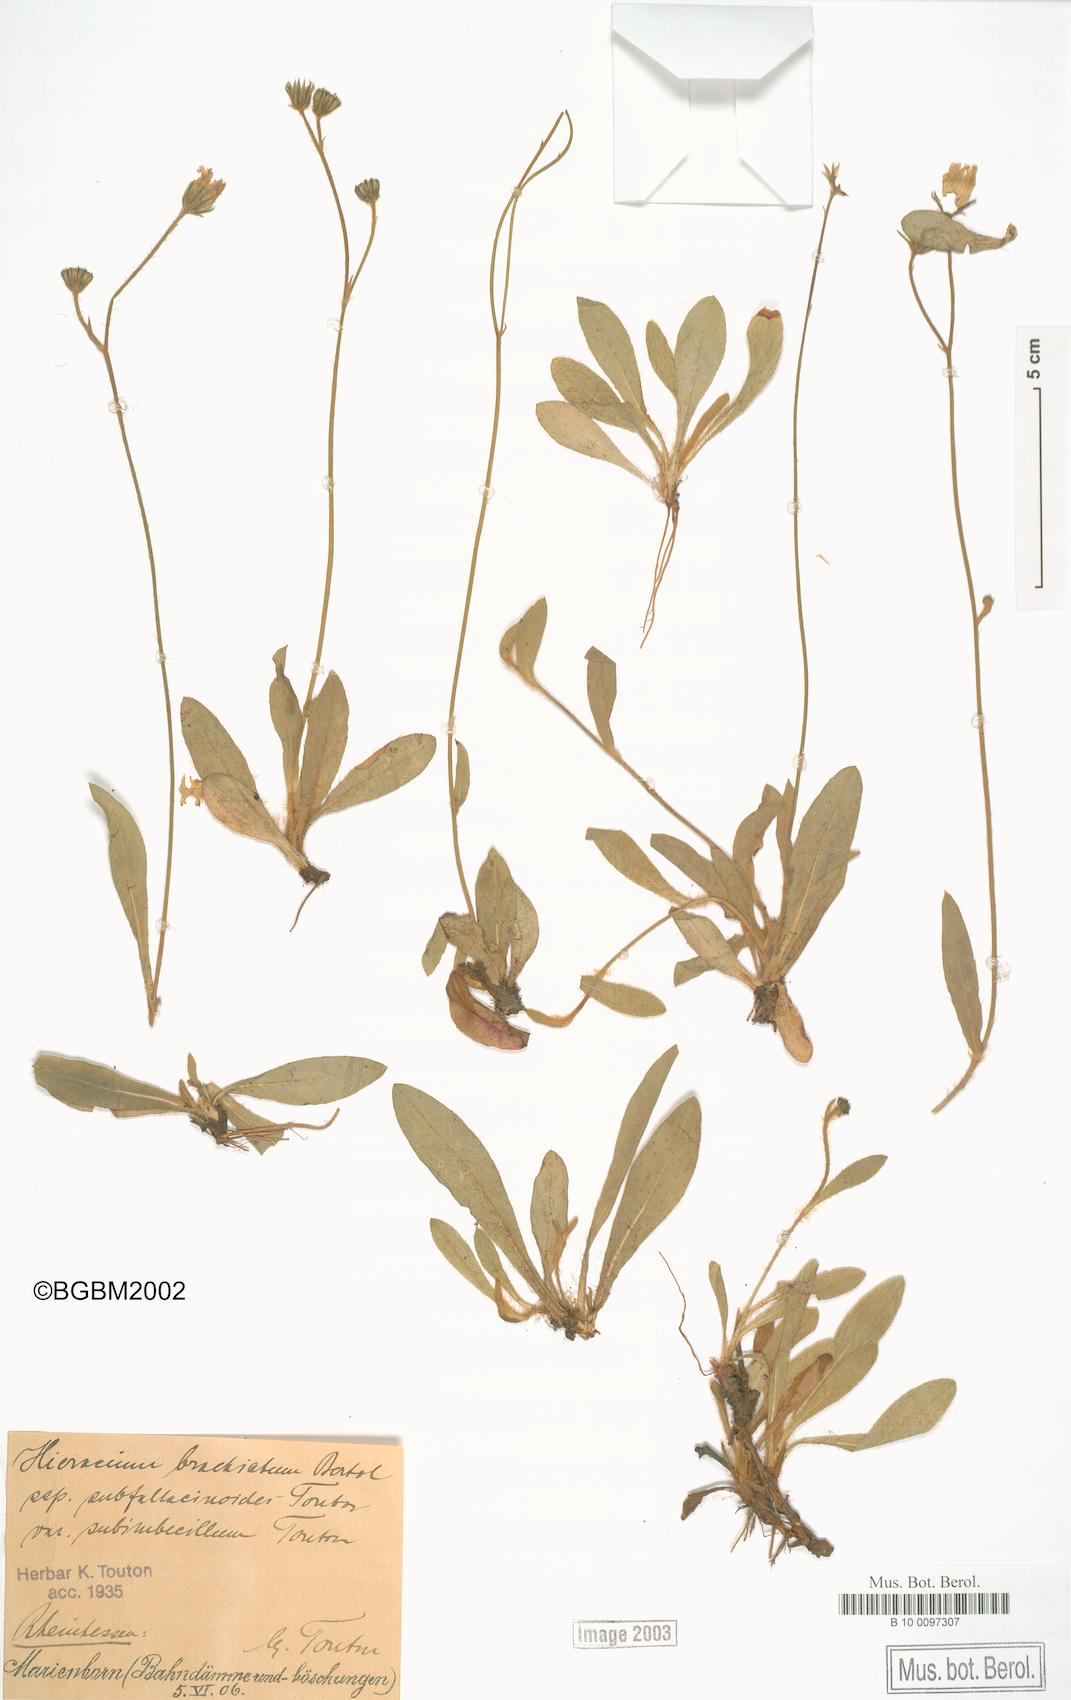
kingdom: Plantae
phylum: Tracheophyta
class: Magnoliopsida
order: Asterales
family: Asteraceae
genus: Pilosella
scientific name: Pilosella acutifolia
